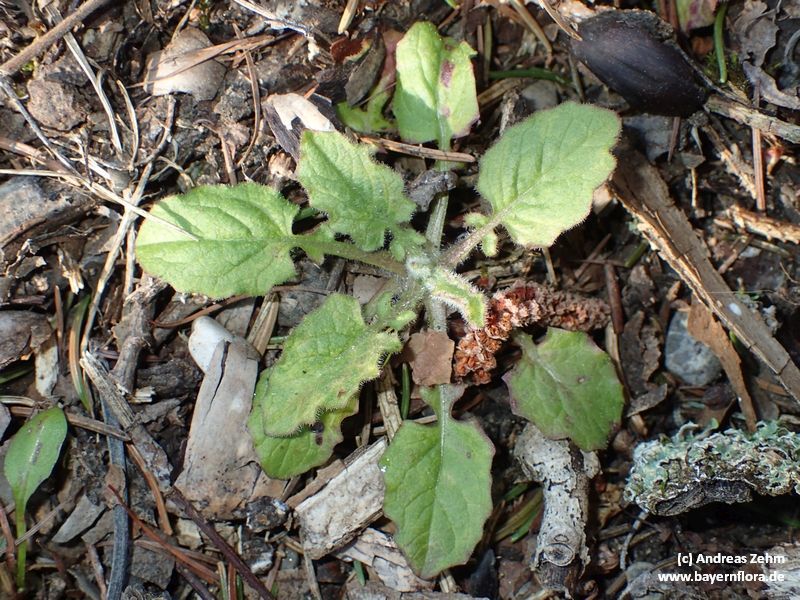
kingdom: Plantae
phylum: Tracheophyta
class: Magnoliopsida
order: Asterales
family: Asteraceae
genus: Lapsana
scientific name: Lapsana communis
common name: Nipplewort
